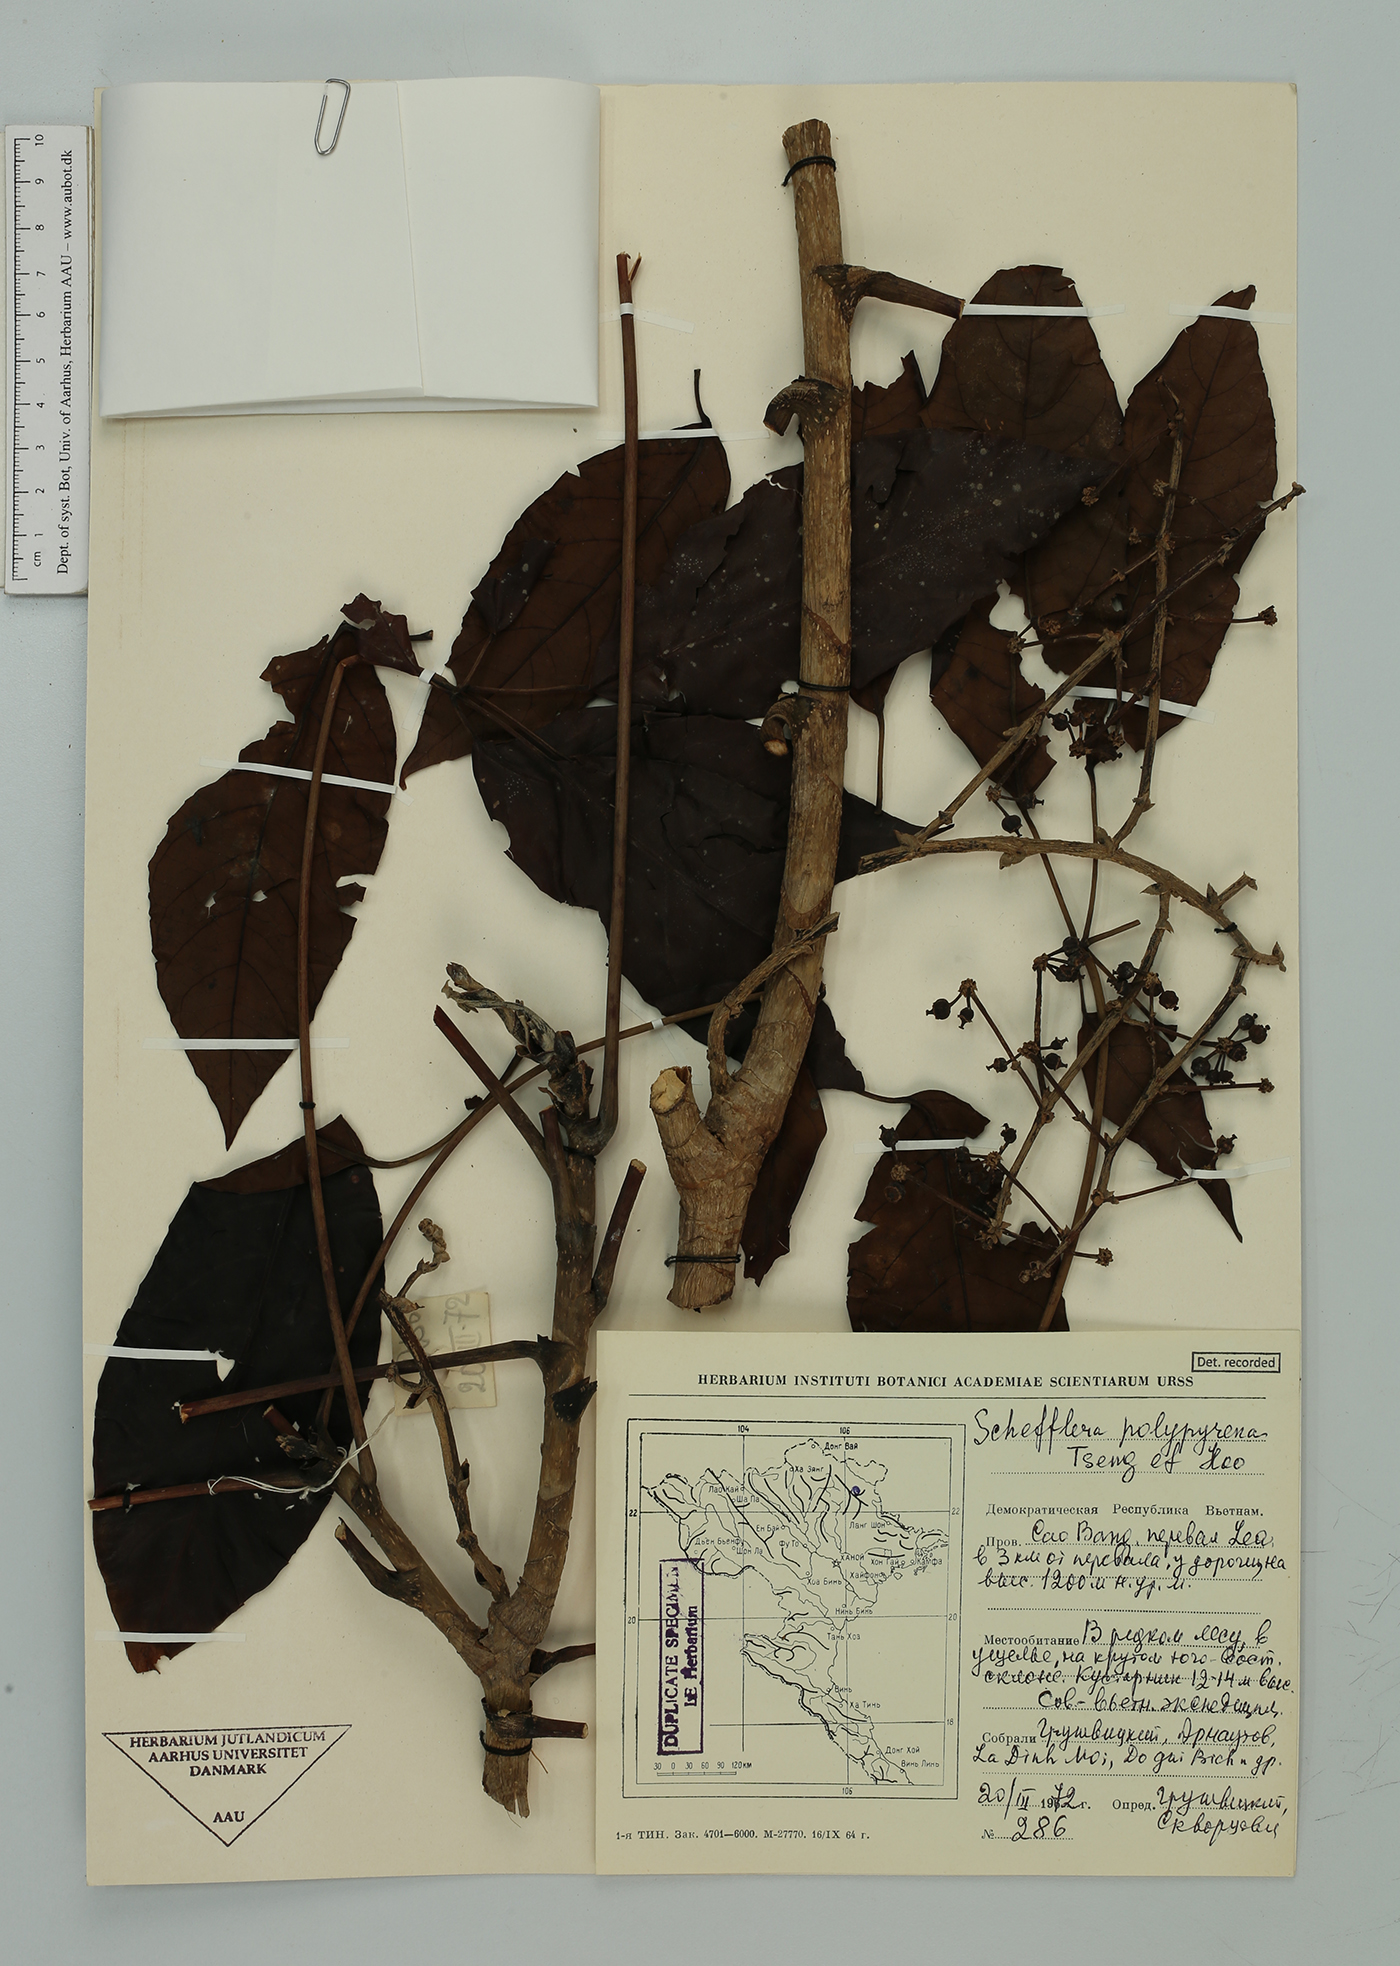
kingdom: Plantae
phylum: Tracheophyta
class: Magnoliopsida
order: Apiales
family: Araliaceae
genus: Heptapleurum
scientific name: Heptapleurum pes-avis
